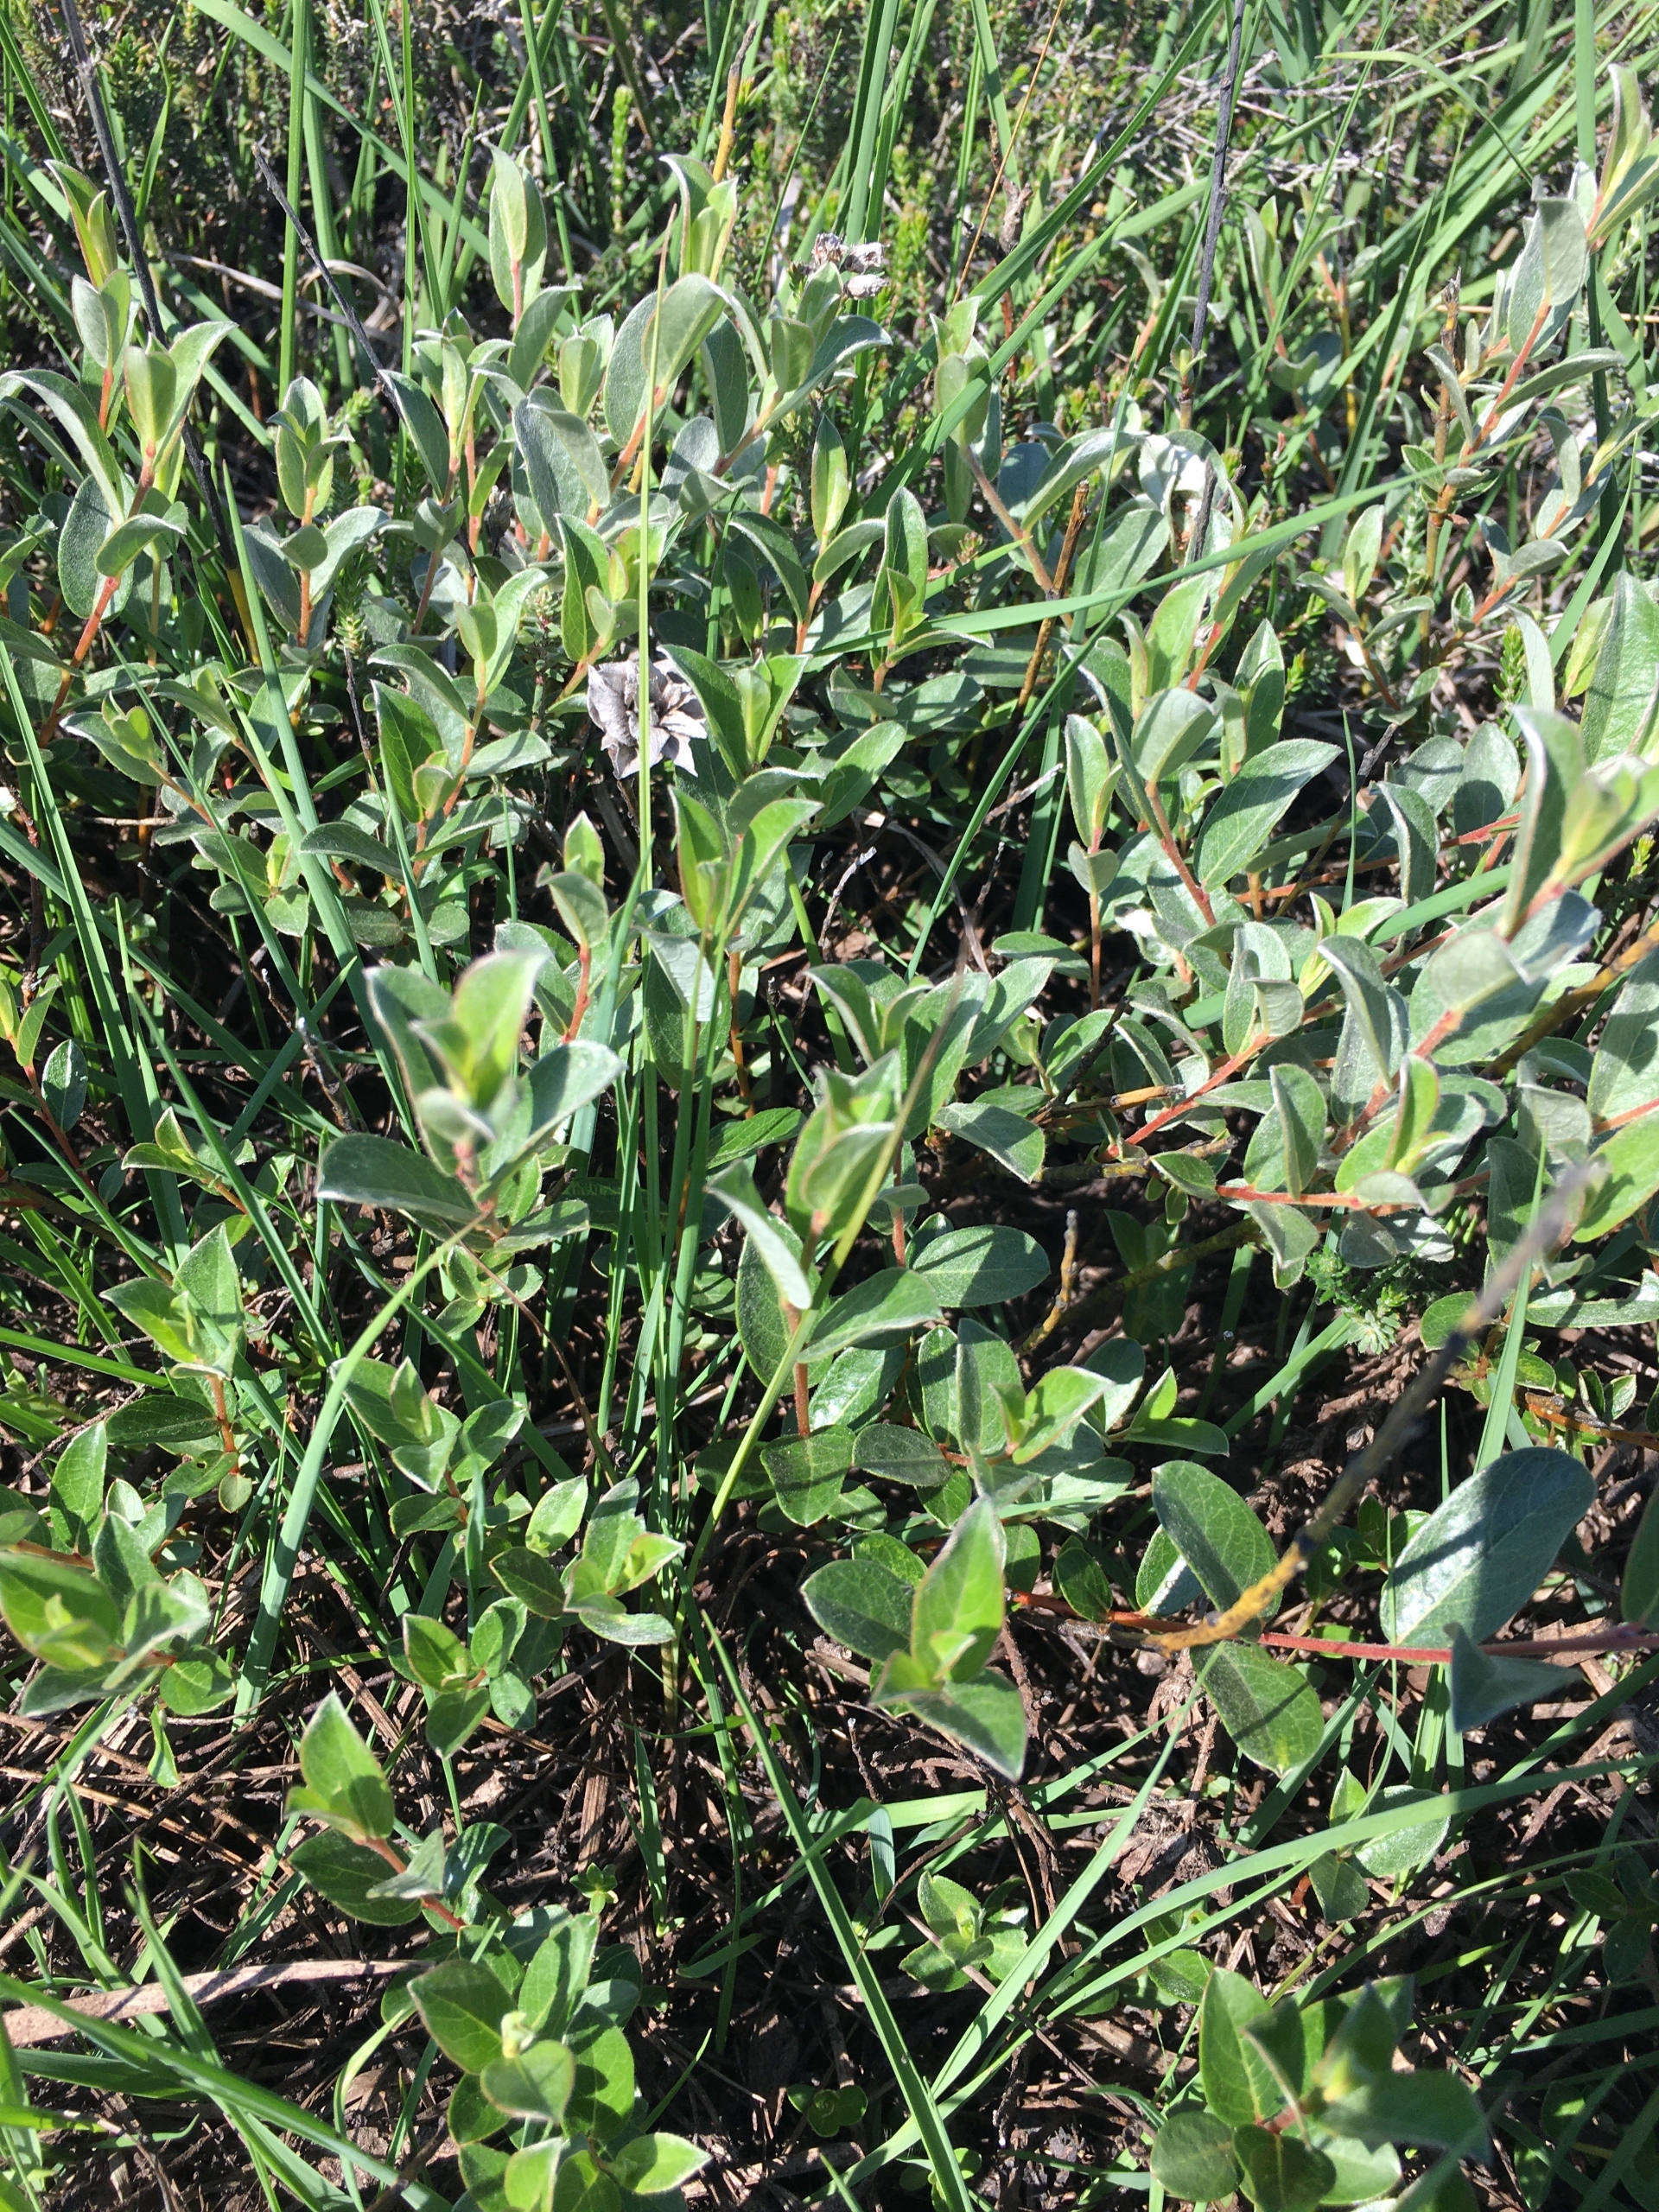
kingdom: Plantae
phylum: Tracheophyta
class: Magnoliopsida
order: Malpighiales
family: Salicaceae
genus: Salix
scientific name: Salix repens
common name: Gråris
